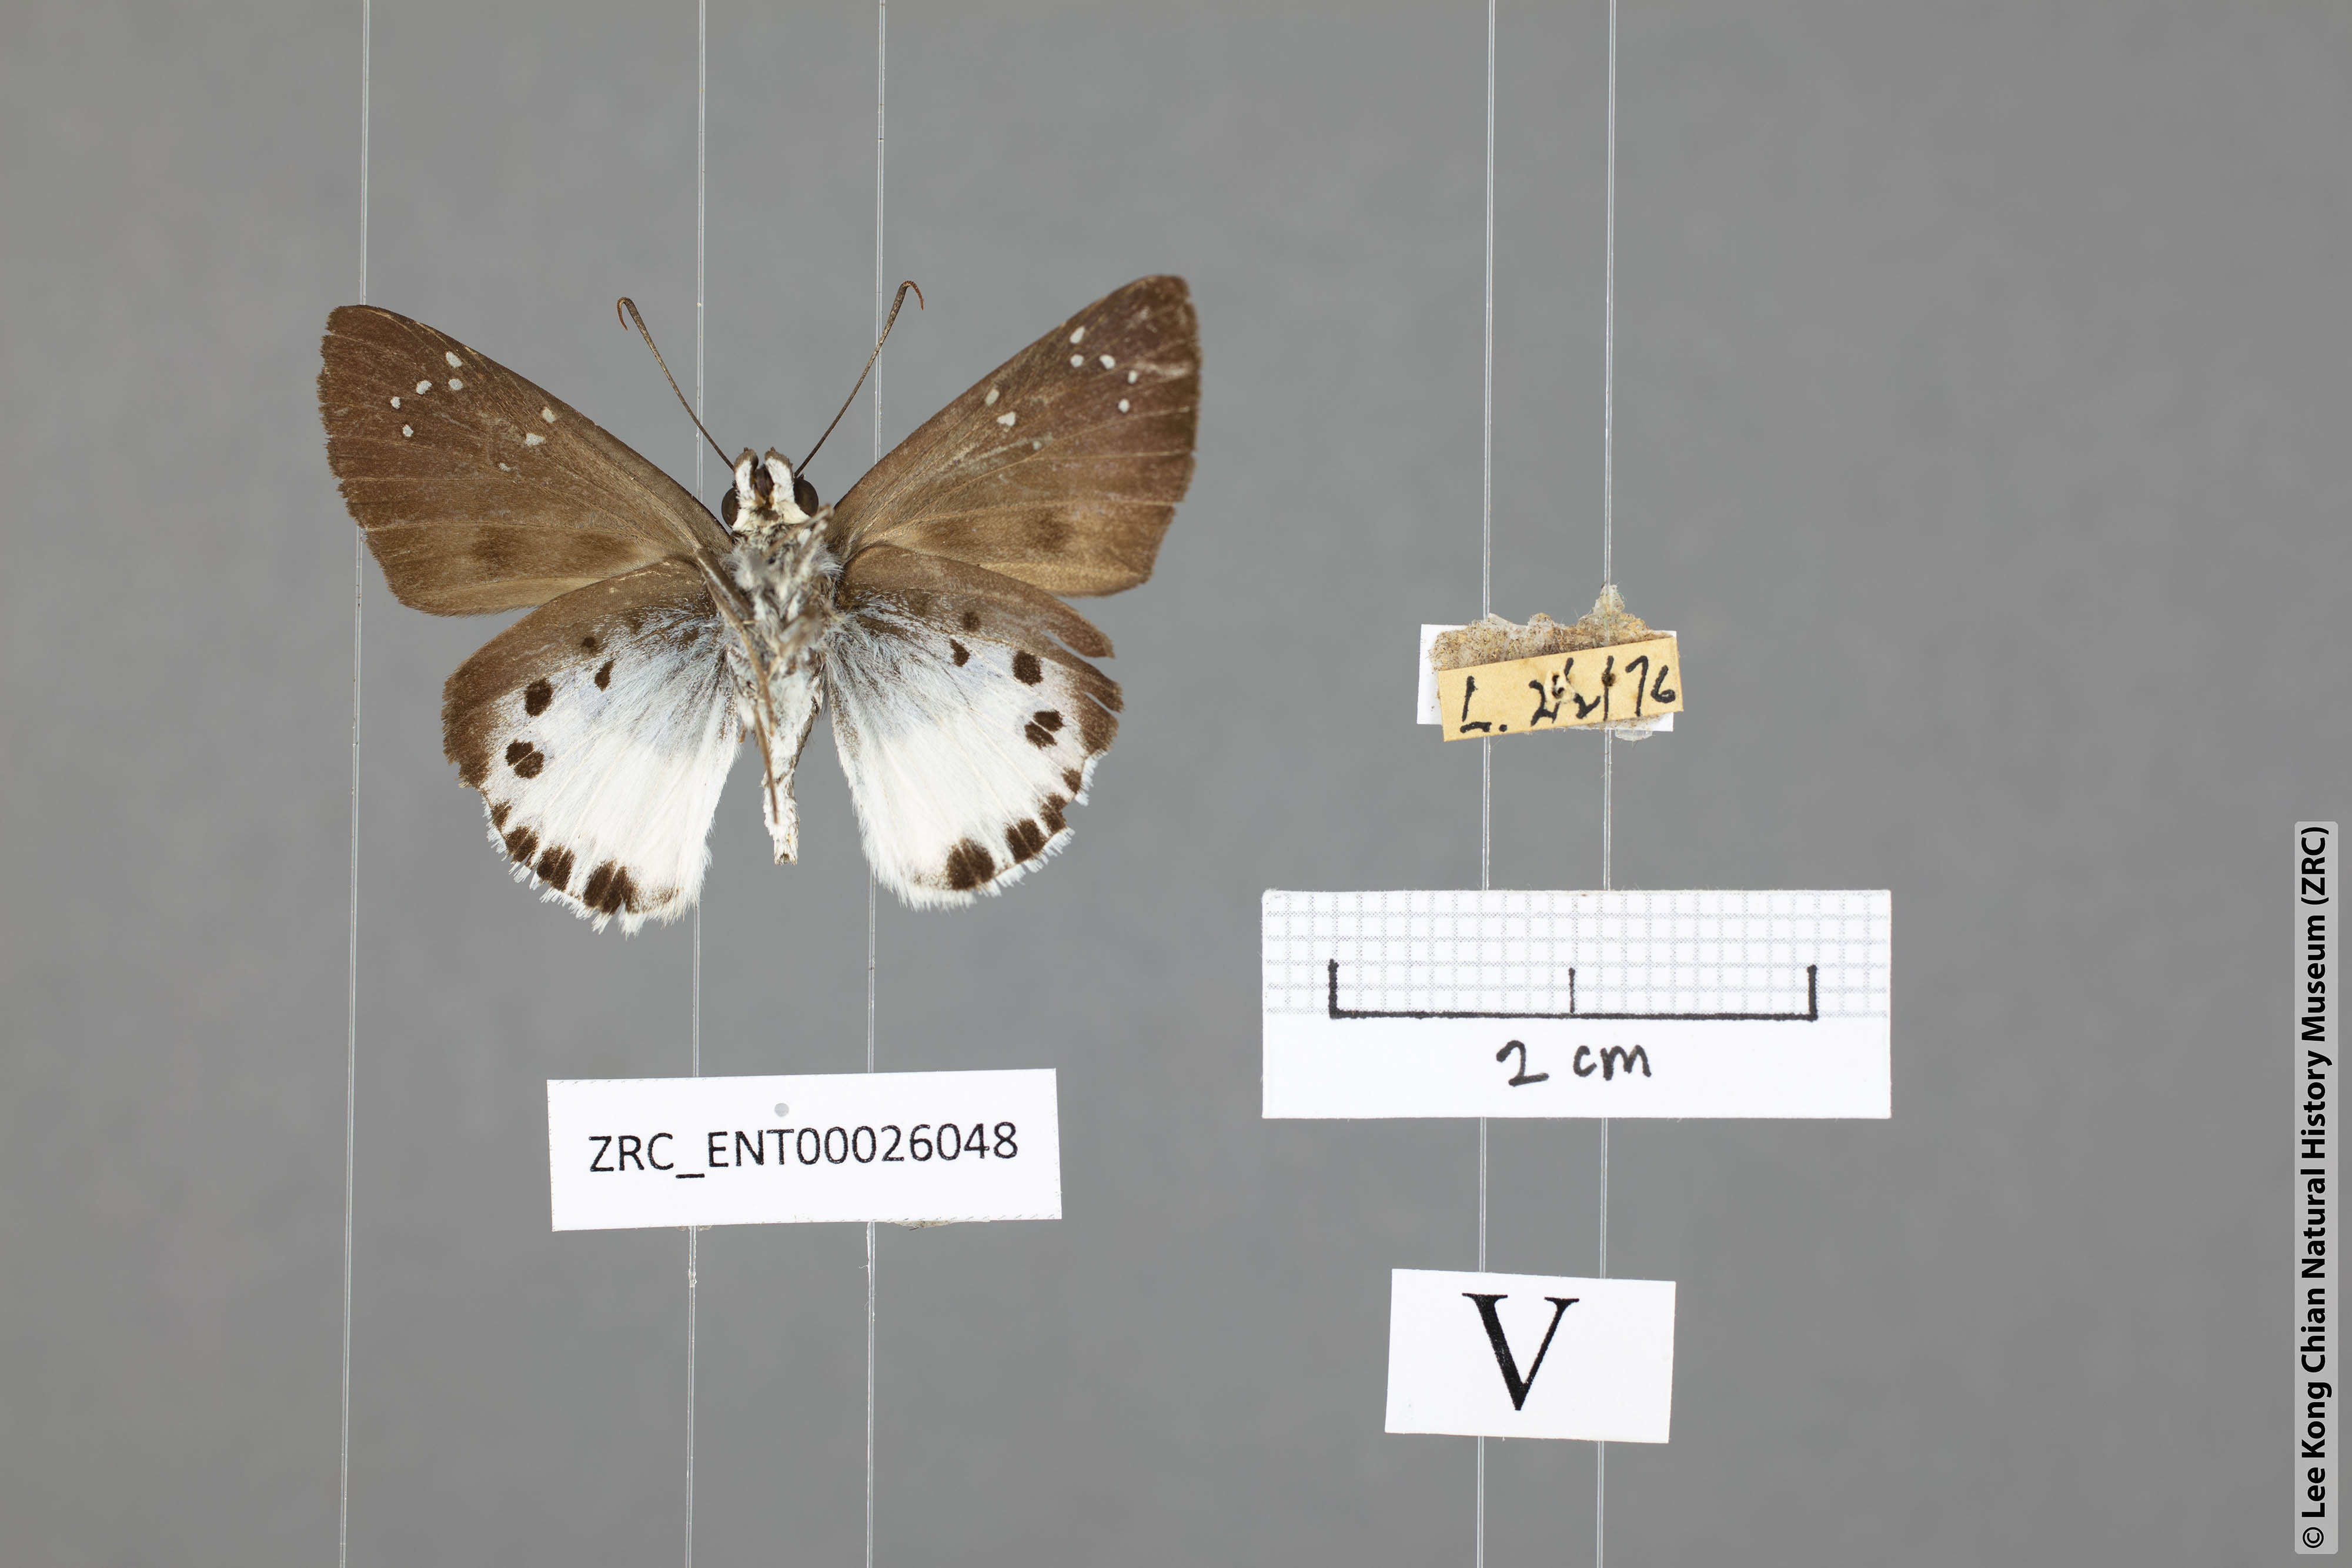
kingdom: Animalia
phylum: Arthropoda
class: Insecta
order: Lepidoptera
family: Hesperiidae
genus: Tagiades
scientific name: Tagiades litigiosa
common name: Water snow flat
